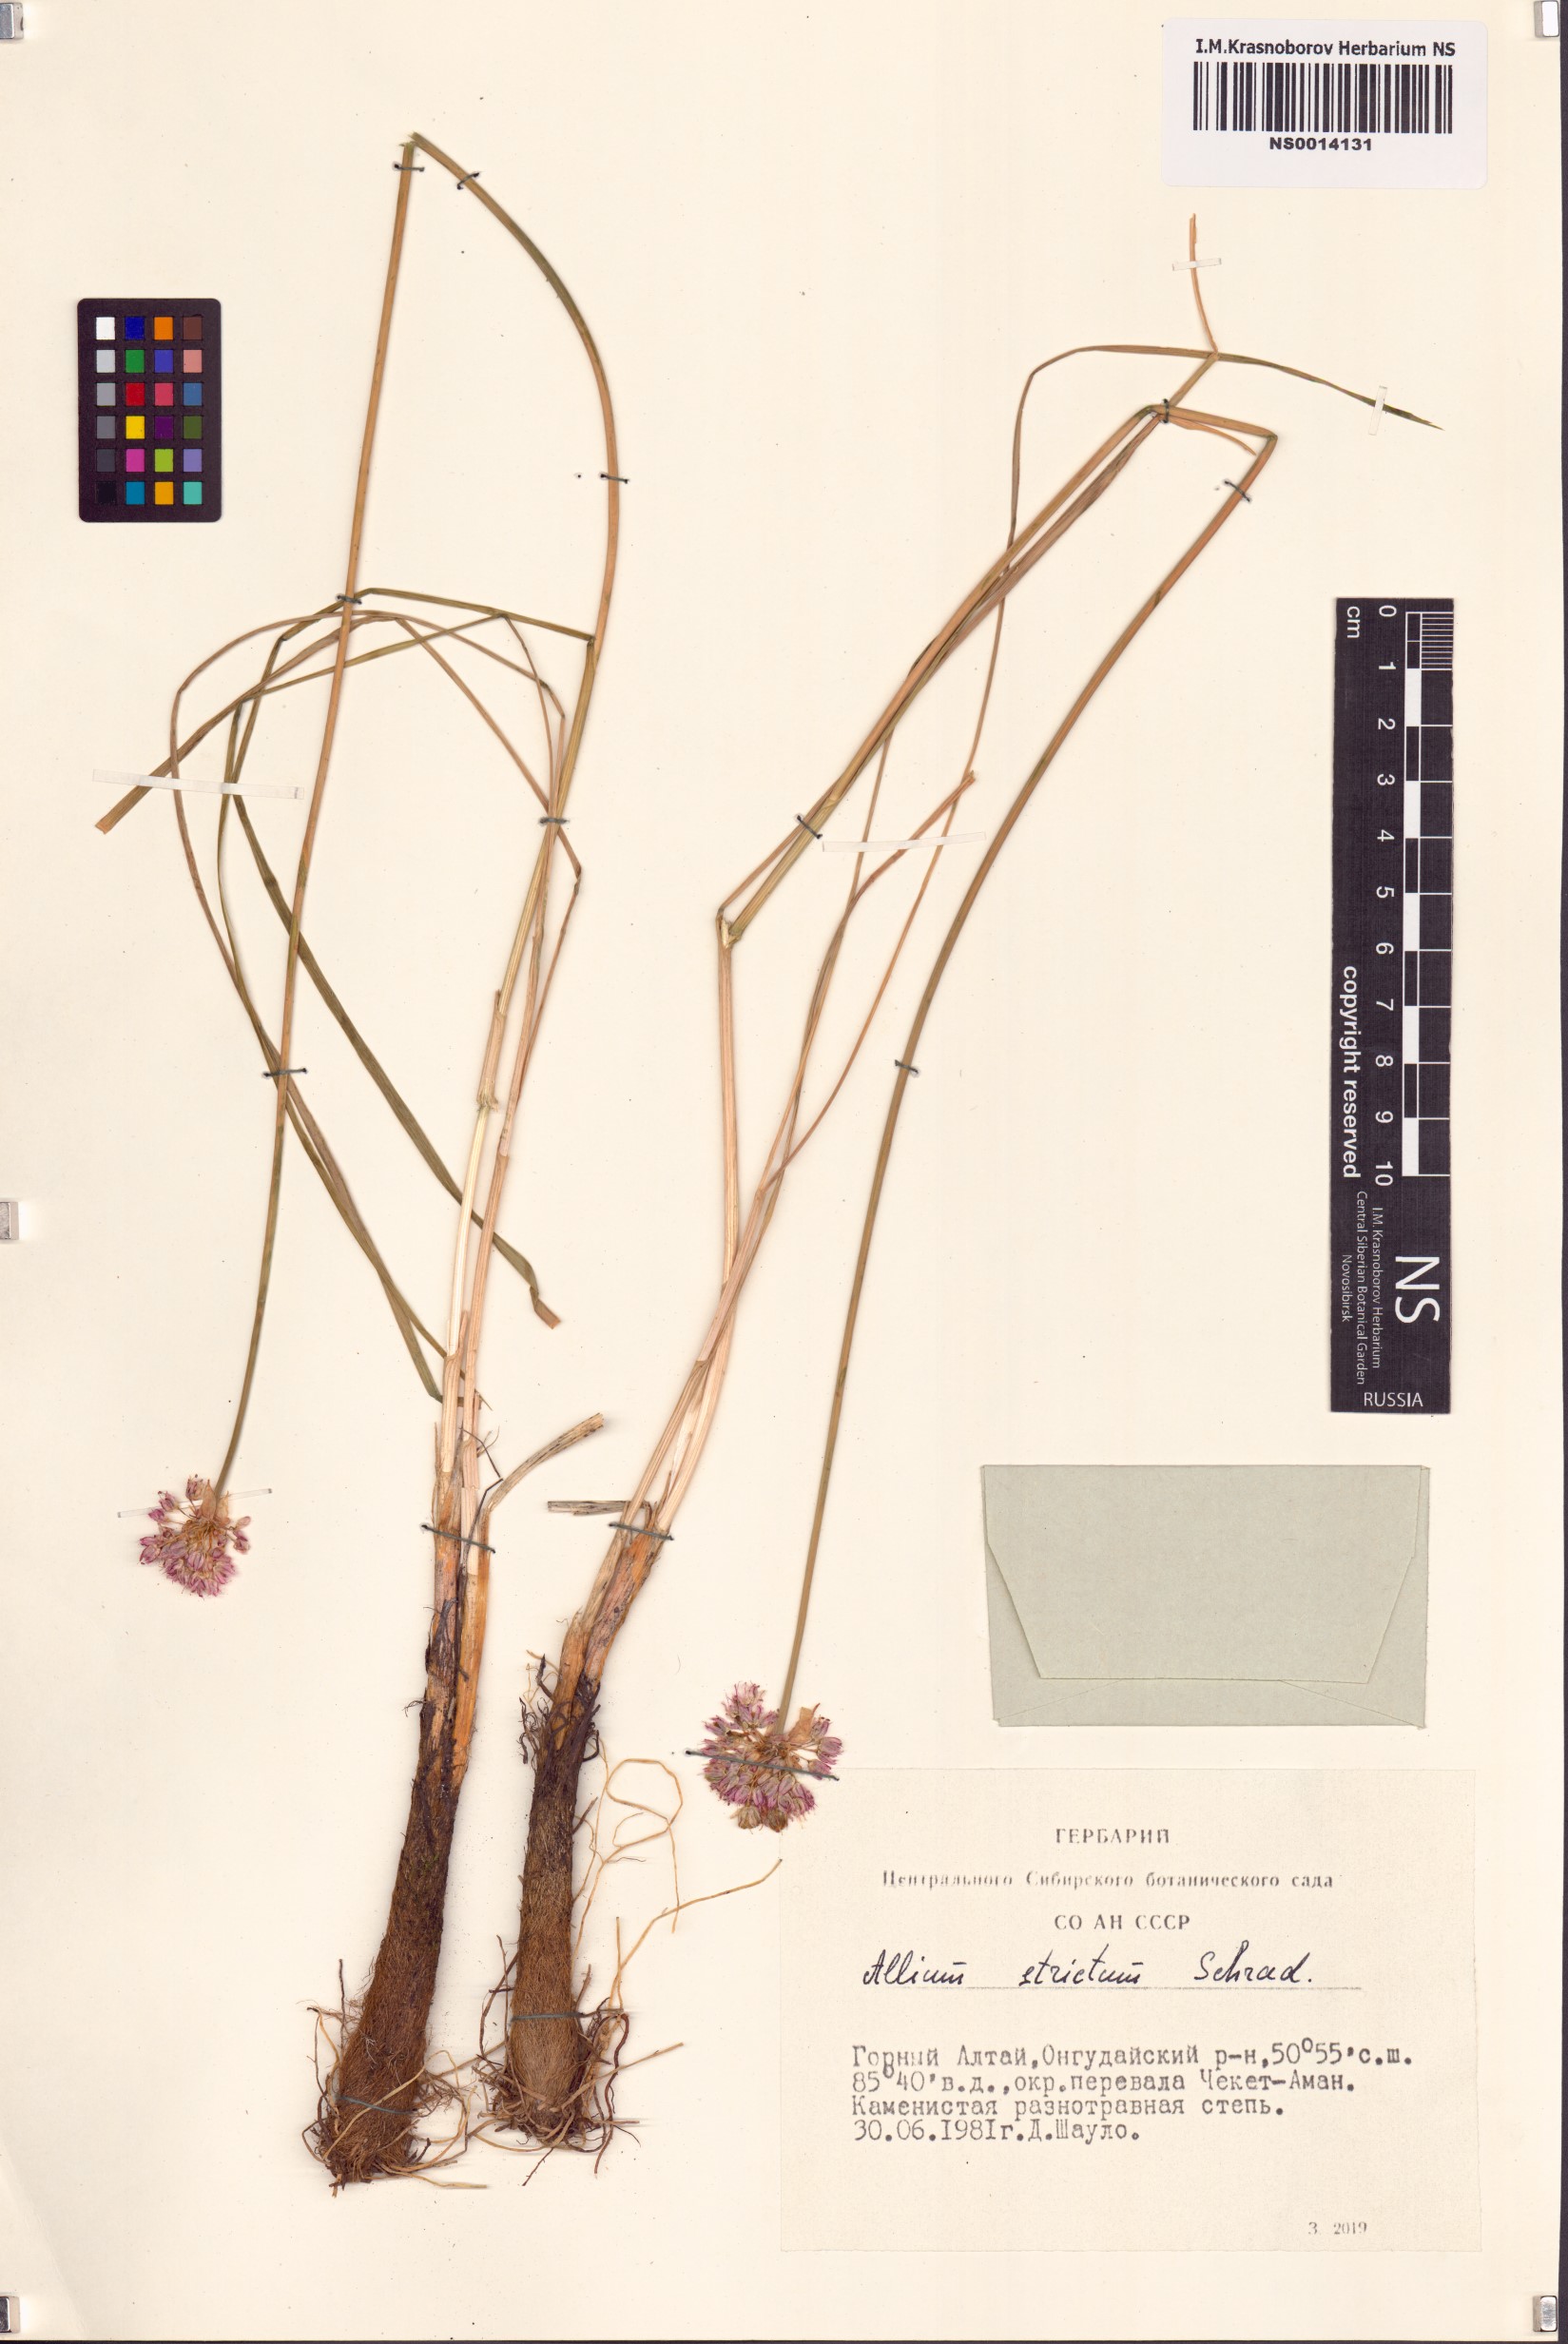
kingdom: Plantae
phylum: Tracheophyta
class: Liliopsida
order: Asparagales
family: Amaryllidaceae
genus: Allium
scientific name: Allium strictum
